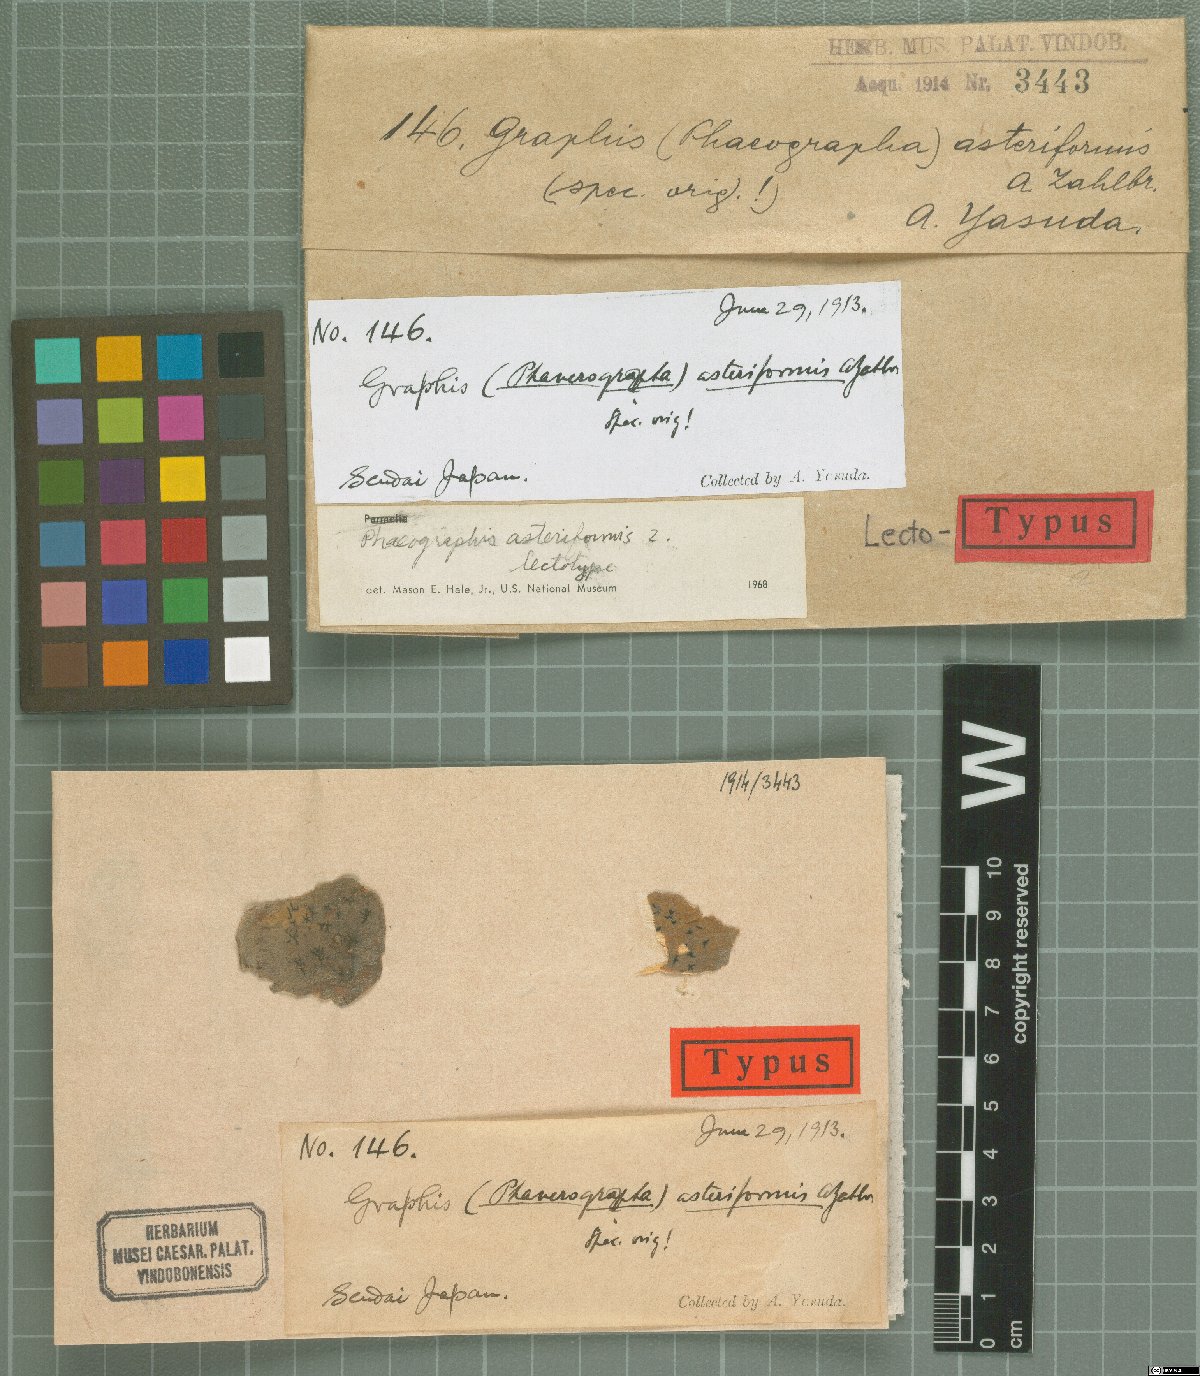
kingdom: Fungi
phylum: Ascomycota
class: Lecanoromycetes
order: Ostropales
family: Graphidaceae
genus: Graphis
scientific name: Graphis
